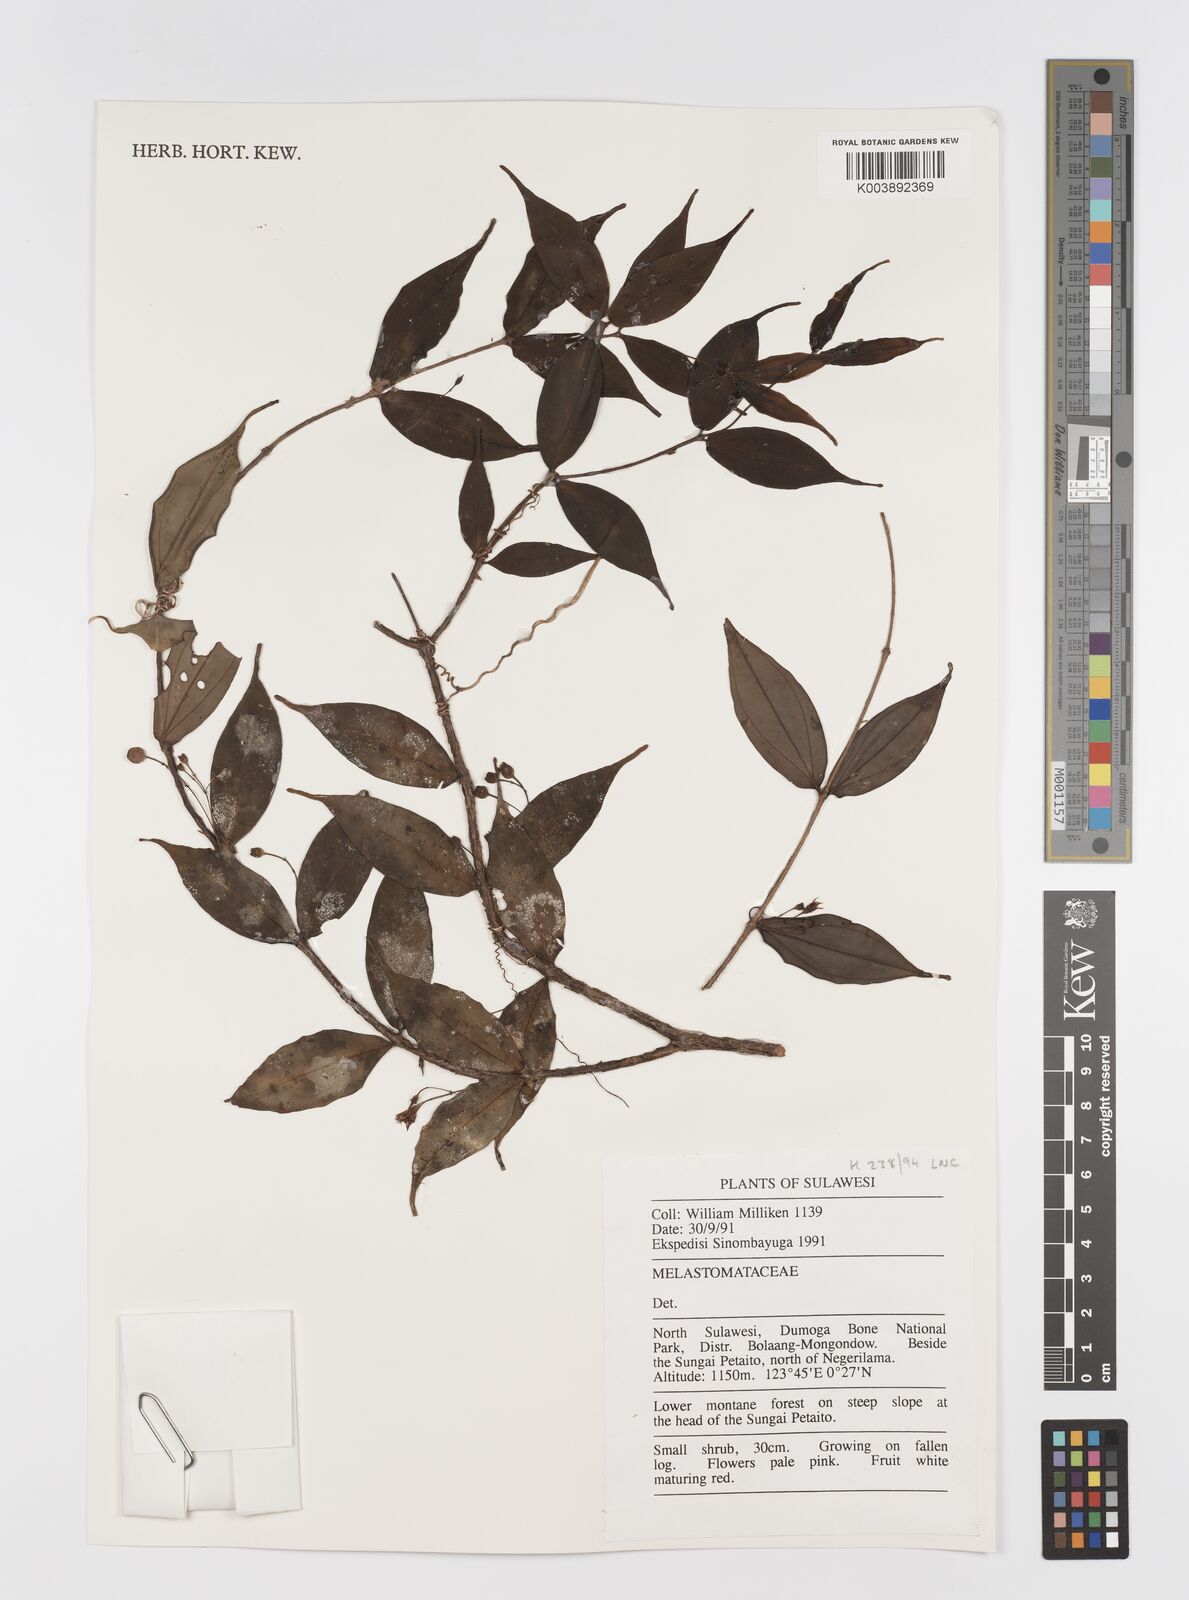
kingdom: Plantae
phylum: Tracheophyta
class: Magnoliopsida
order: Myrtales
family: Melastomataceae
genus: Medinilla
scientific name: Medinilla
